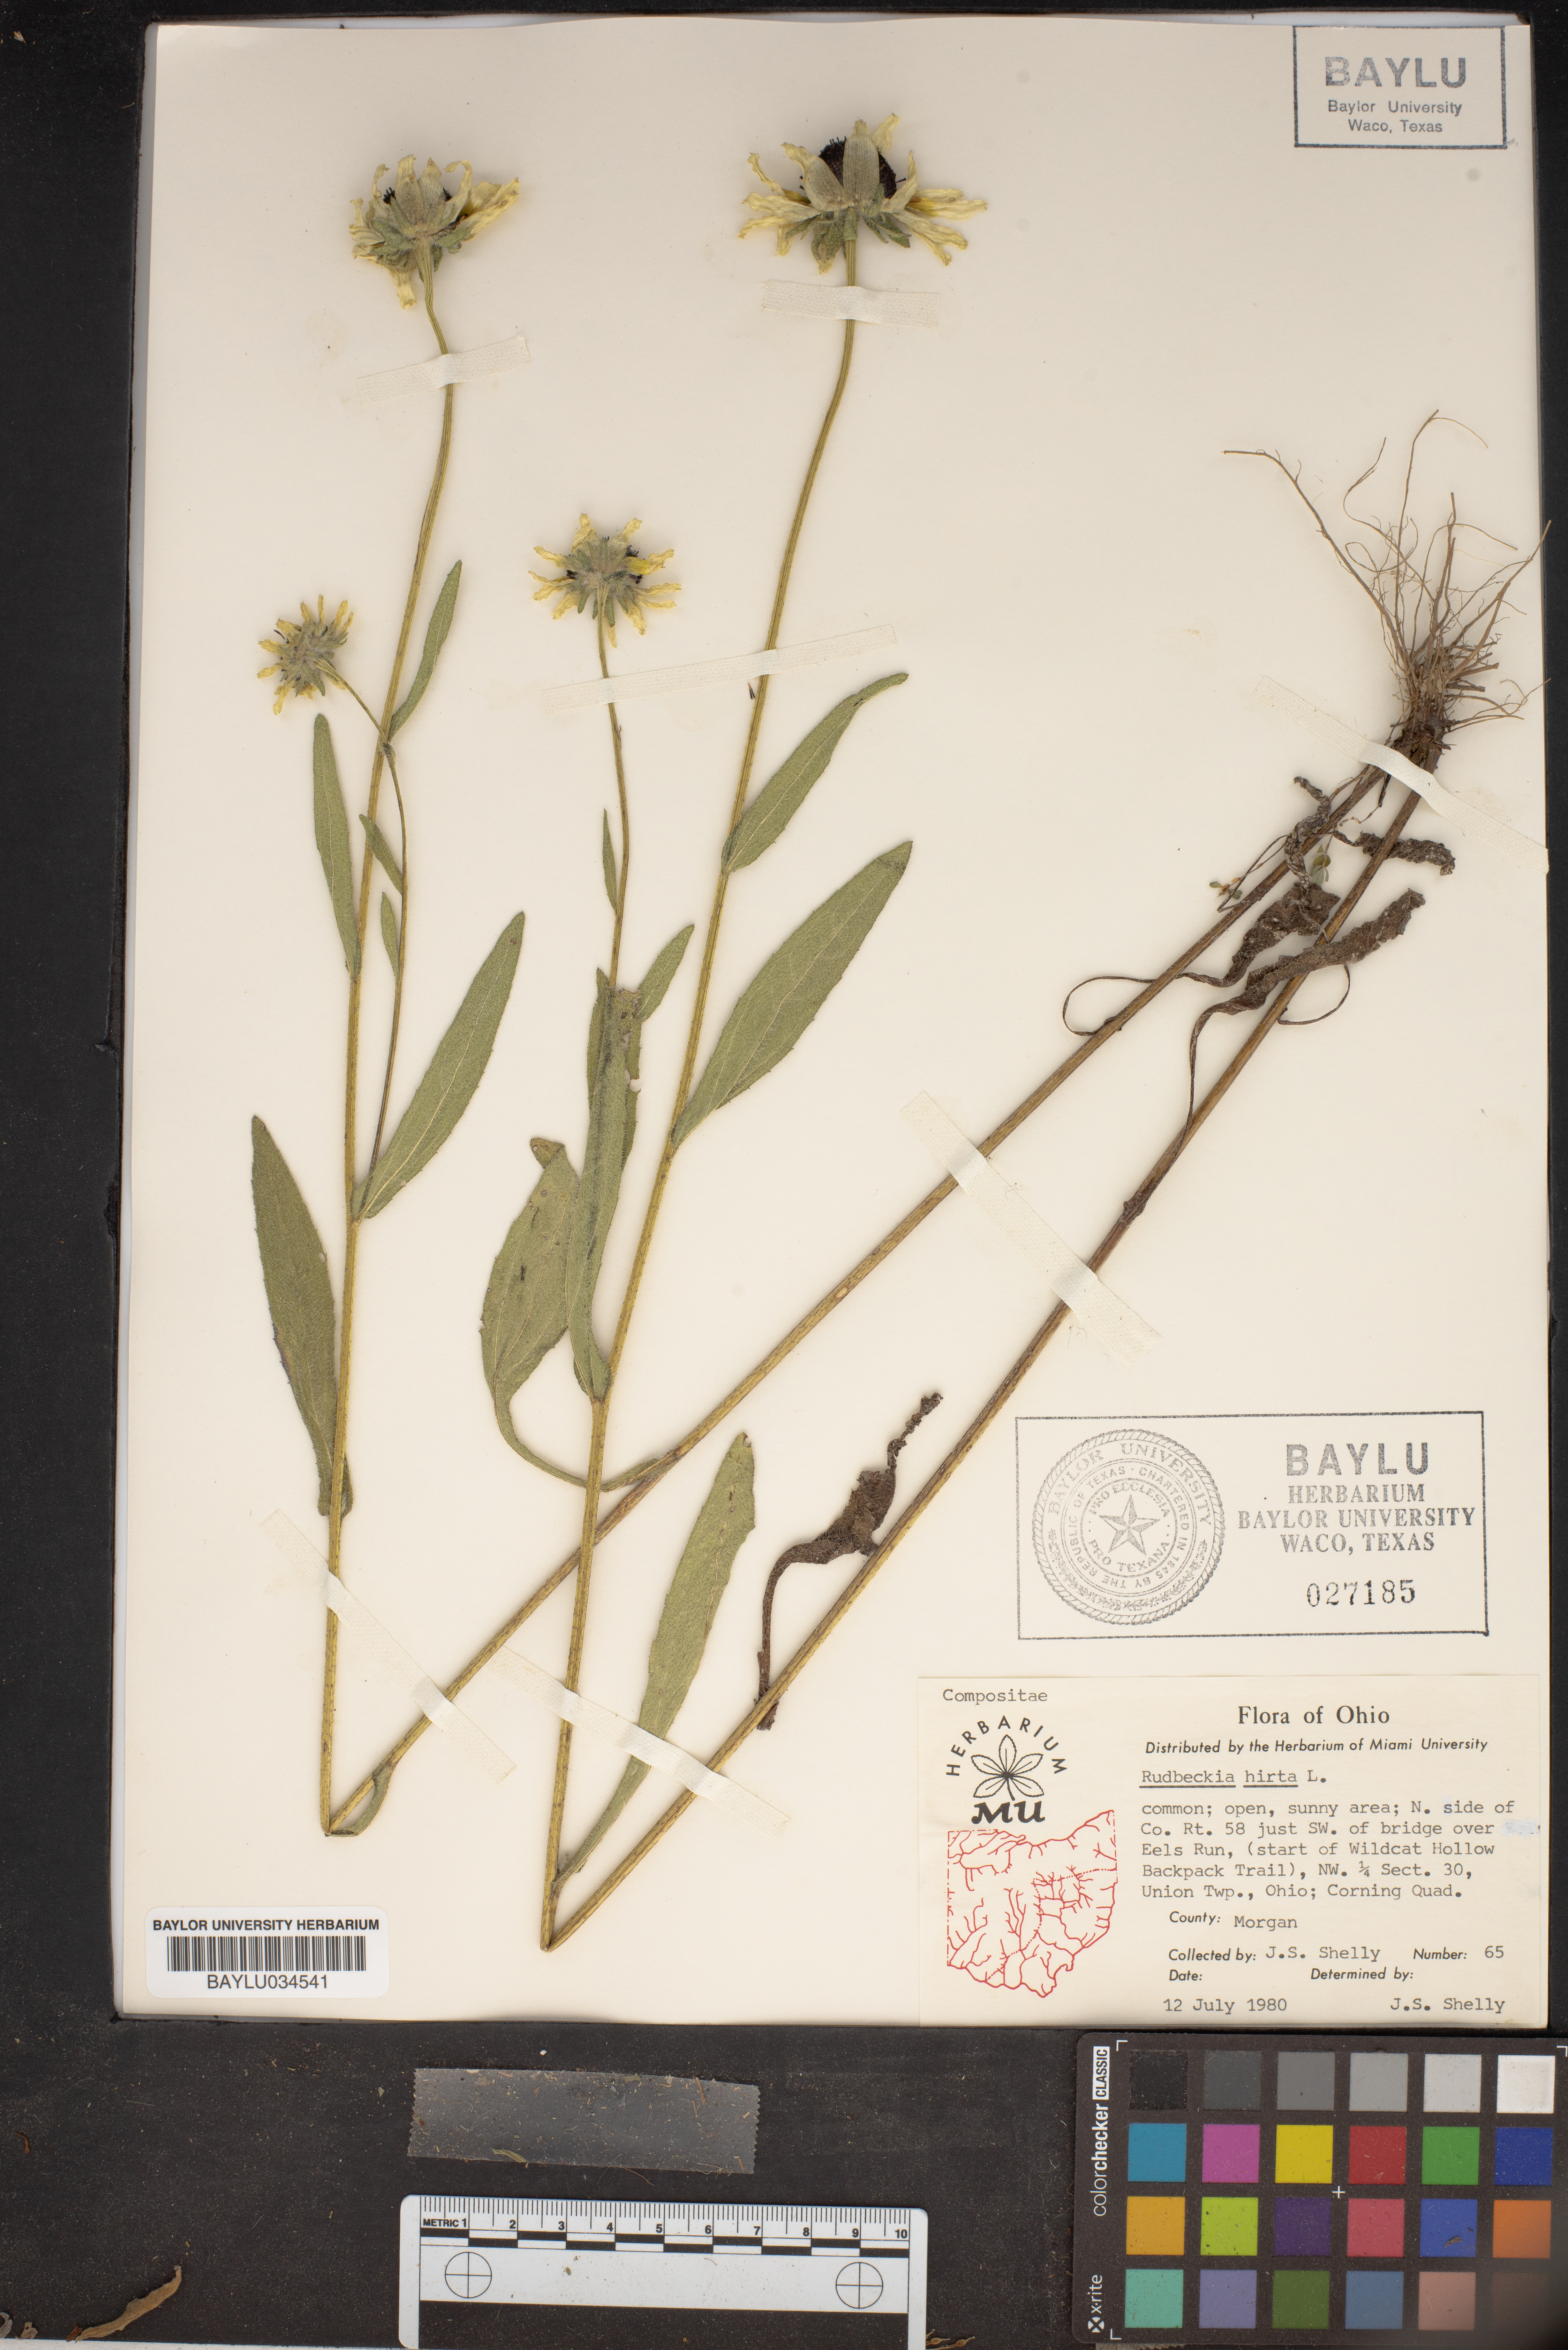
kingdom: Plantae
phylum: Tracheophyta
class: Magnoliopsida
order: Asterales
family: Asteraceae
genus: Rudbeckia
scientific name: Rudbeckia hirta
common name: Black-eyed-susan
